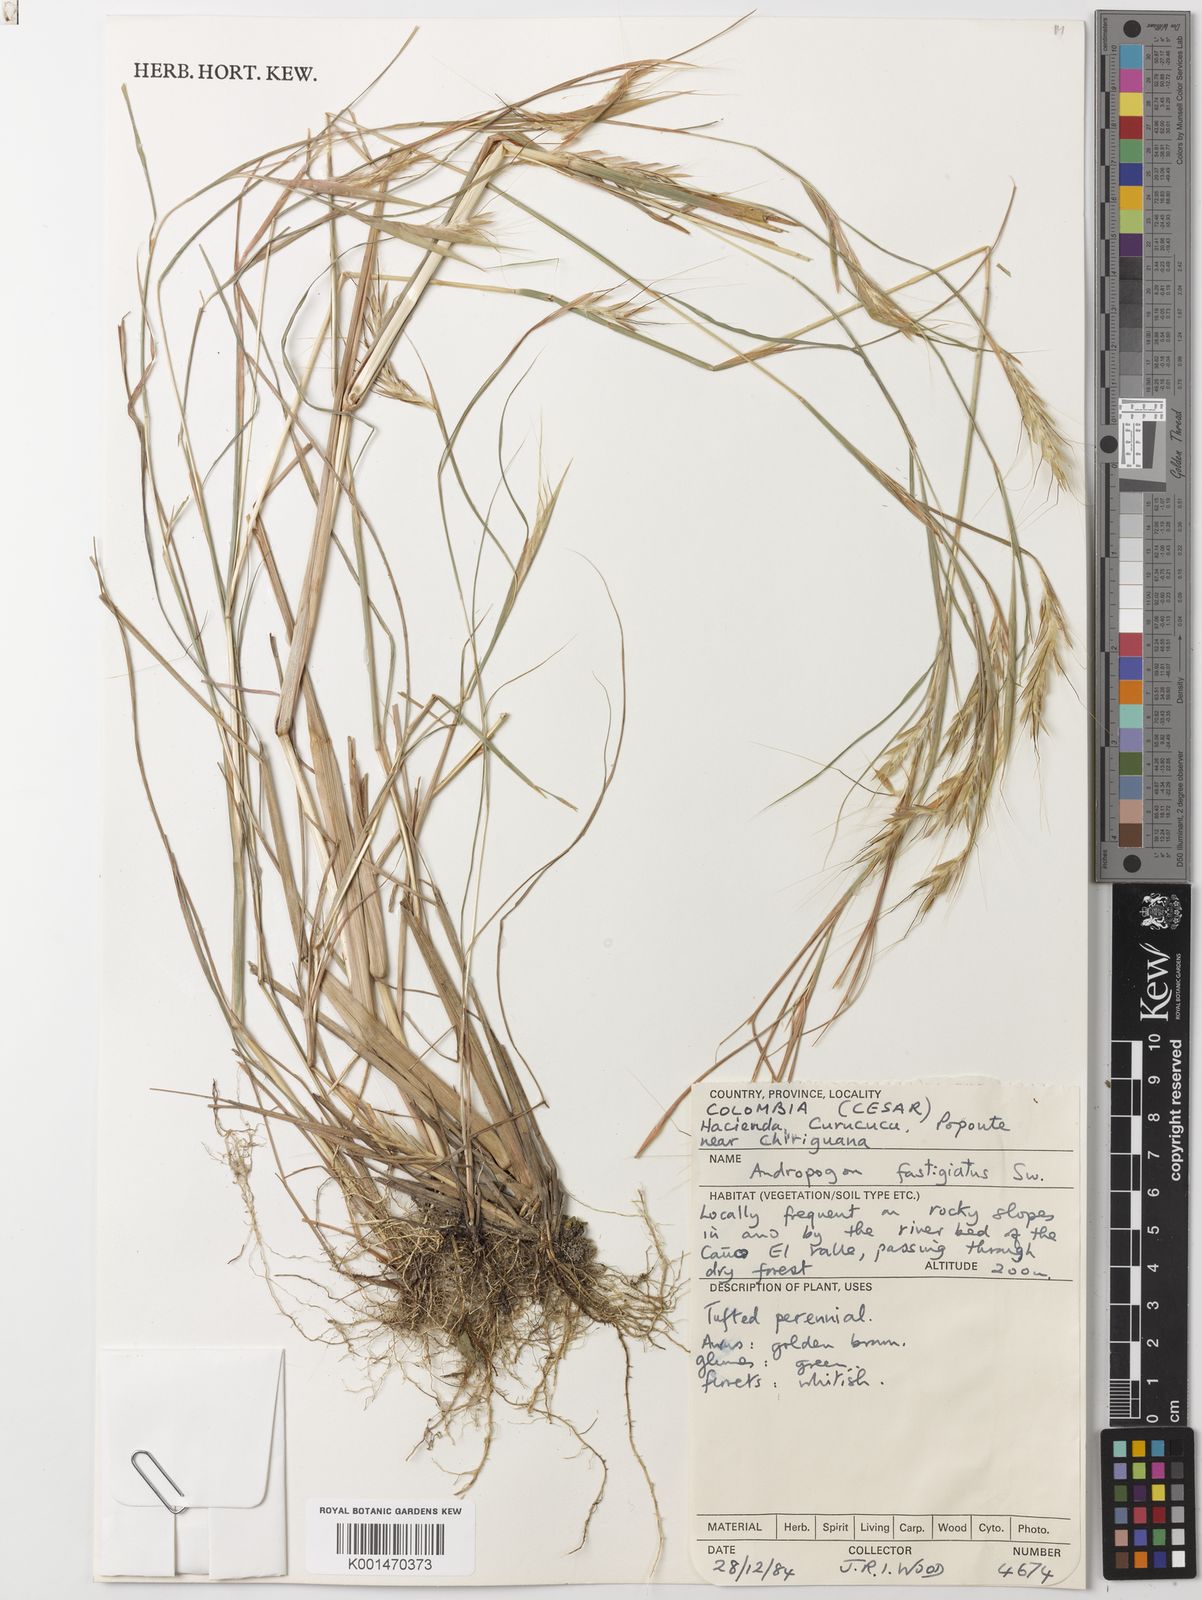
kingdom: Plantae
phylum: Tracheophyta
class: Liliopsida
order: Poales
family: Poaceae
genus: Diectomis
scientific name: Diectomis fastigiata
